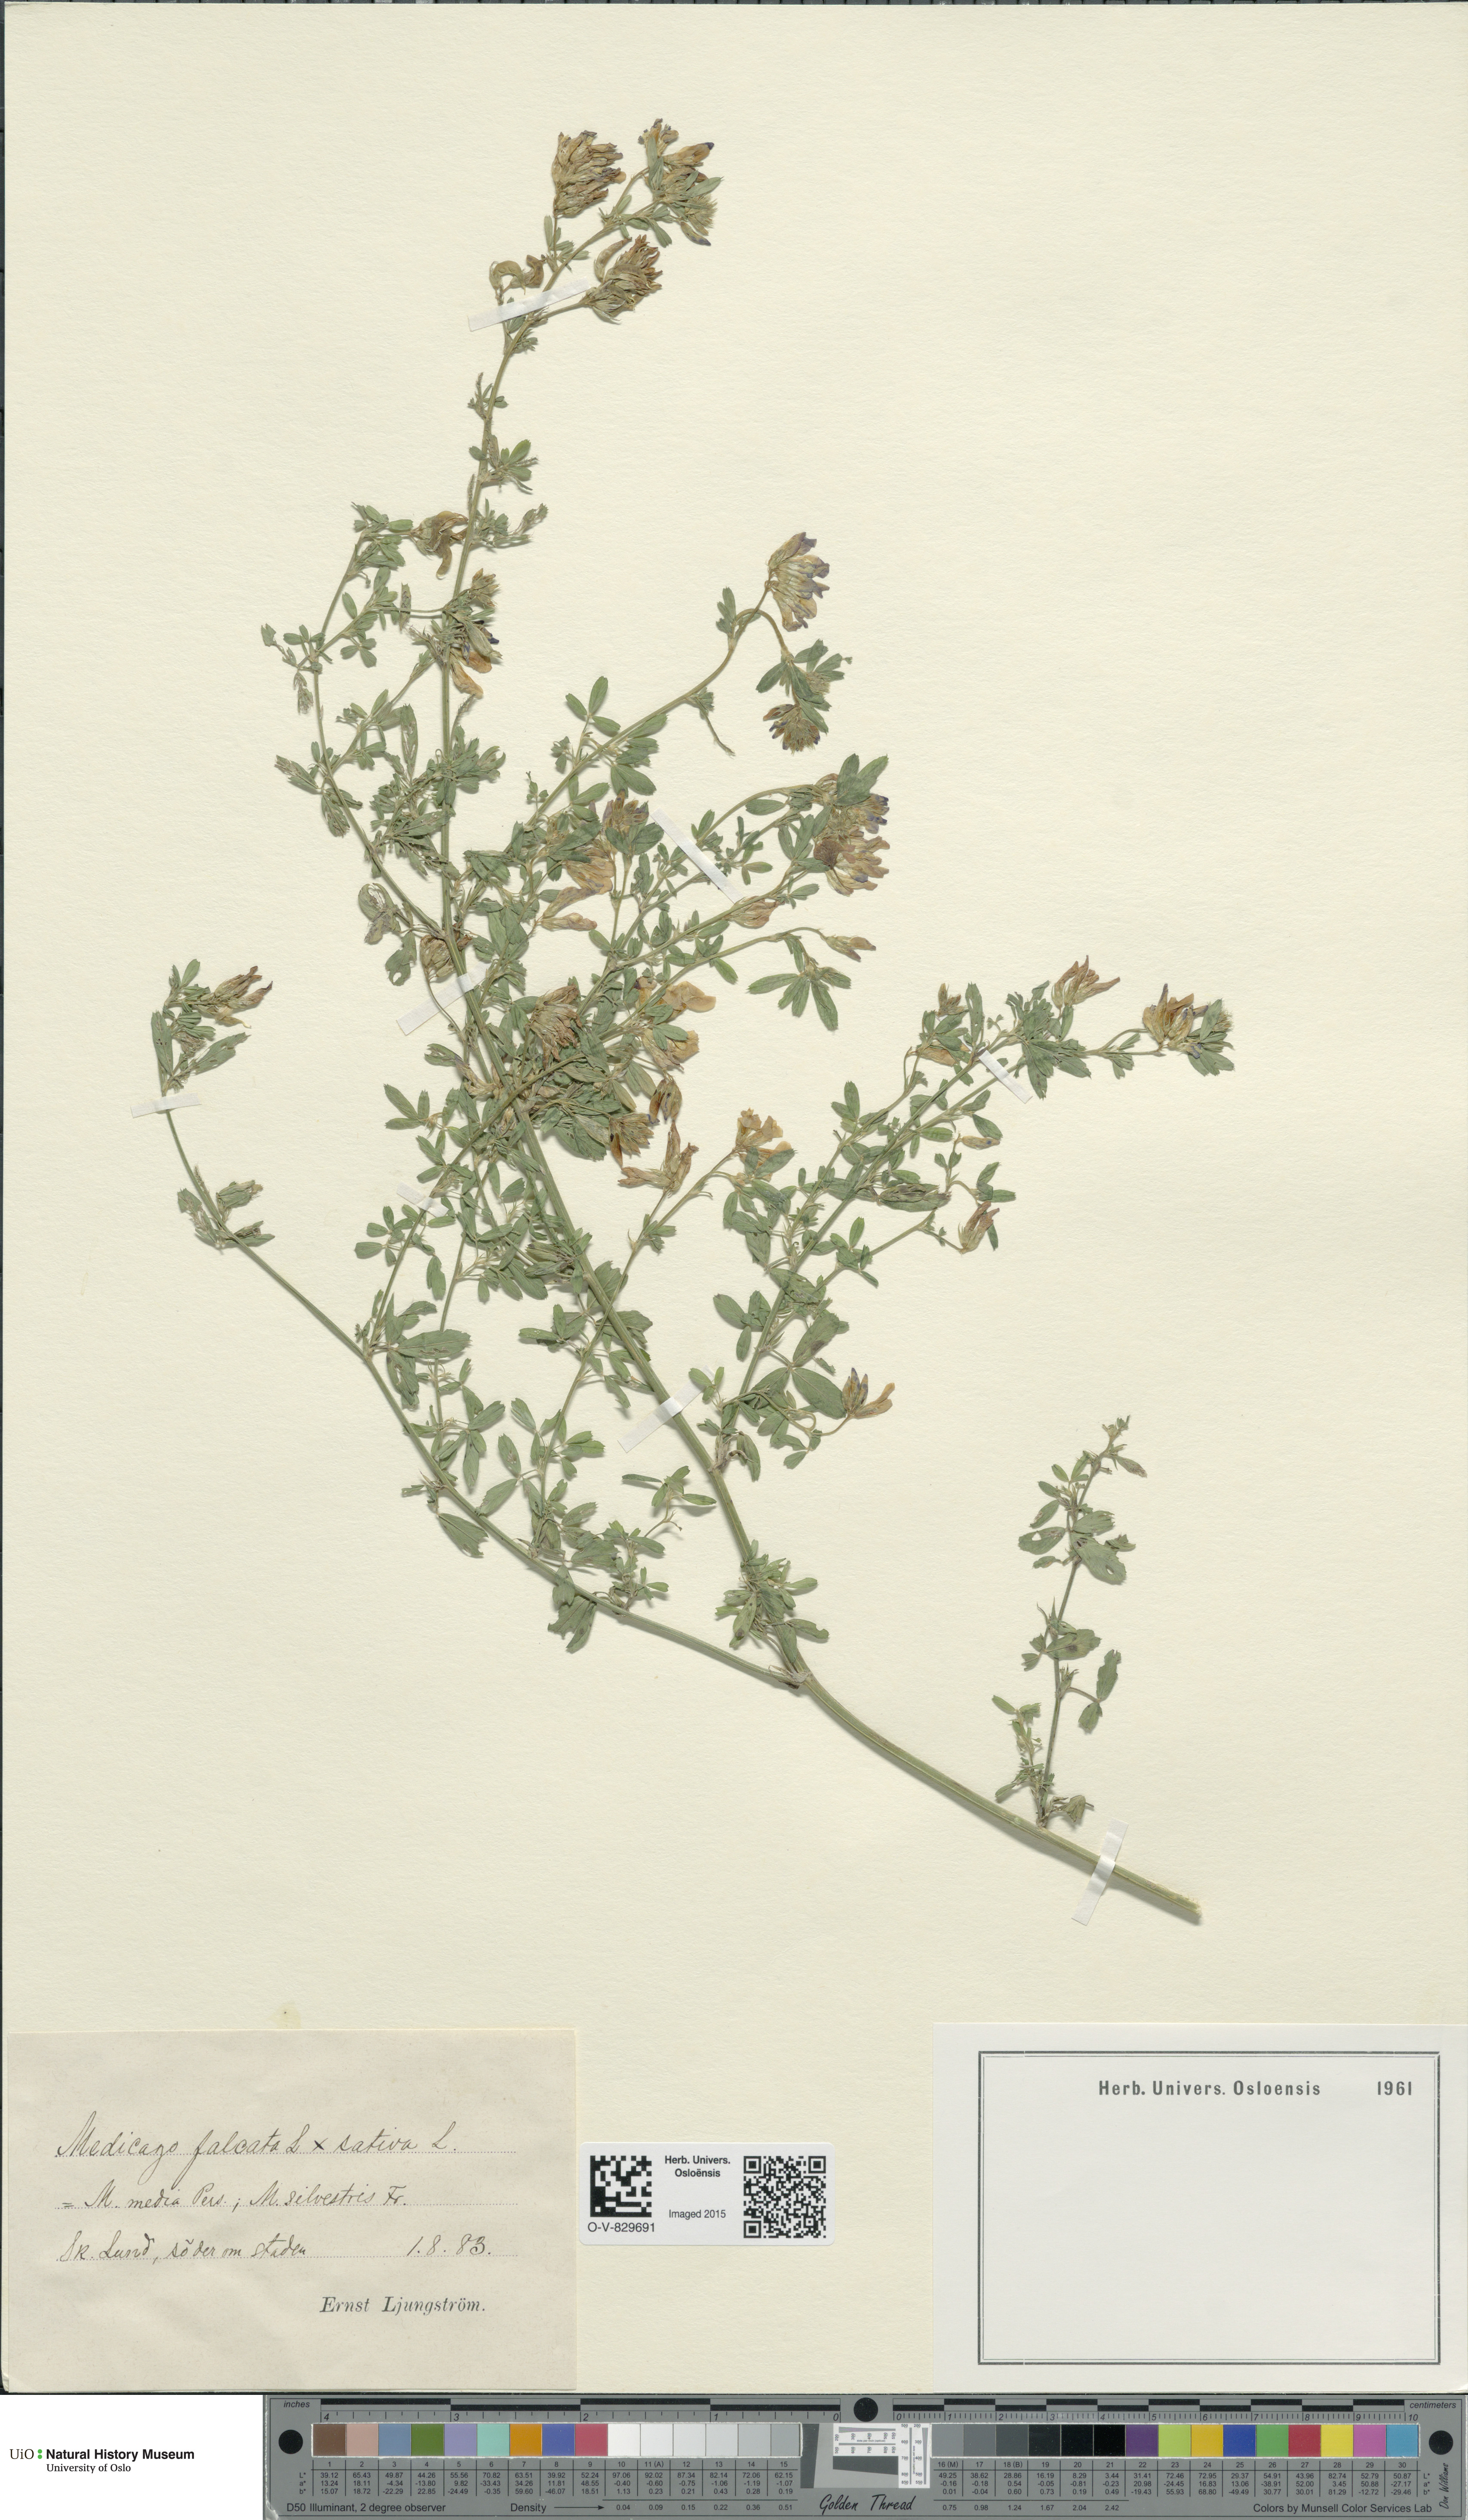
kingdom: Plantae
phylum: Tracheophyta
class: Magnoliopsida
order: Fabales
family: Fabaceae
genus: Medicago
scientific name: Medicago
